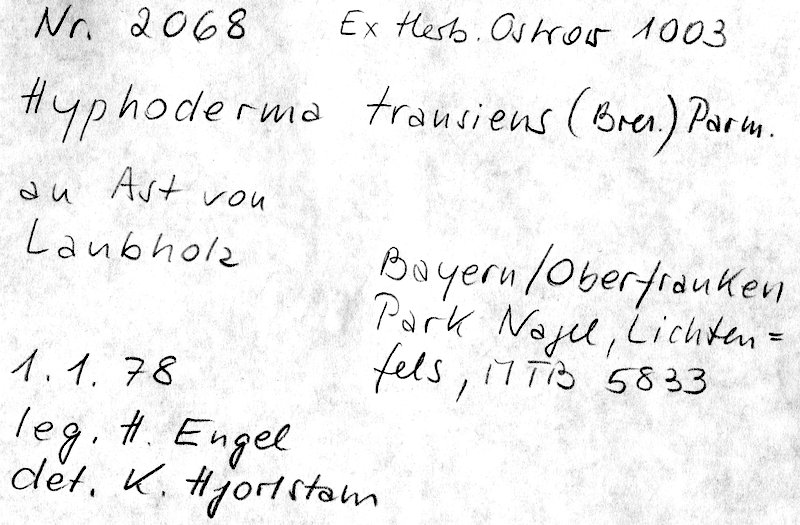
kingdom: Fungi
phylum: Basidiomycota
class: Agaricomycetes
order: Polyporales
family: Hyphodermataceae
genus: Hyphoderma
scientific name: Hyphoderma transiens
